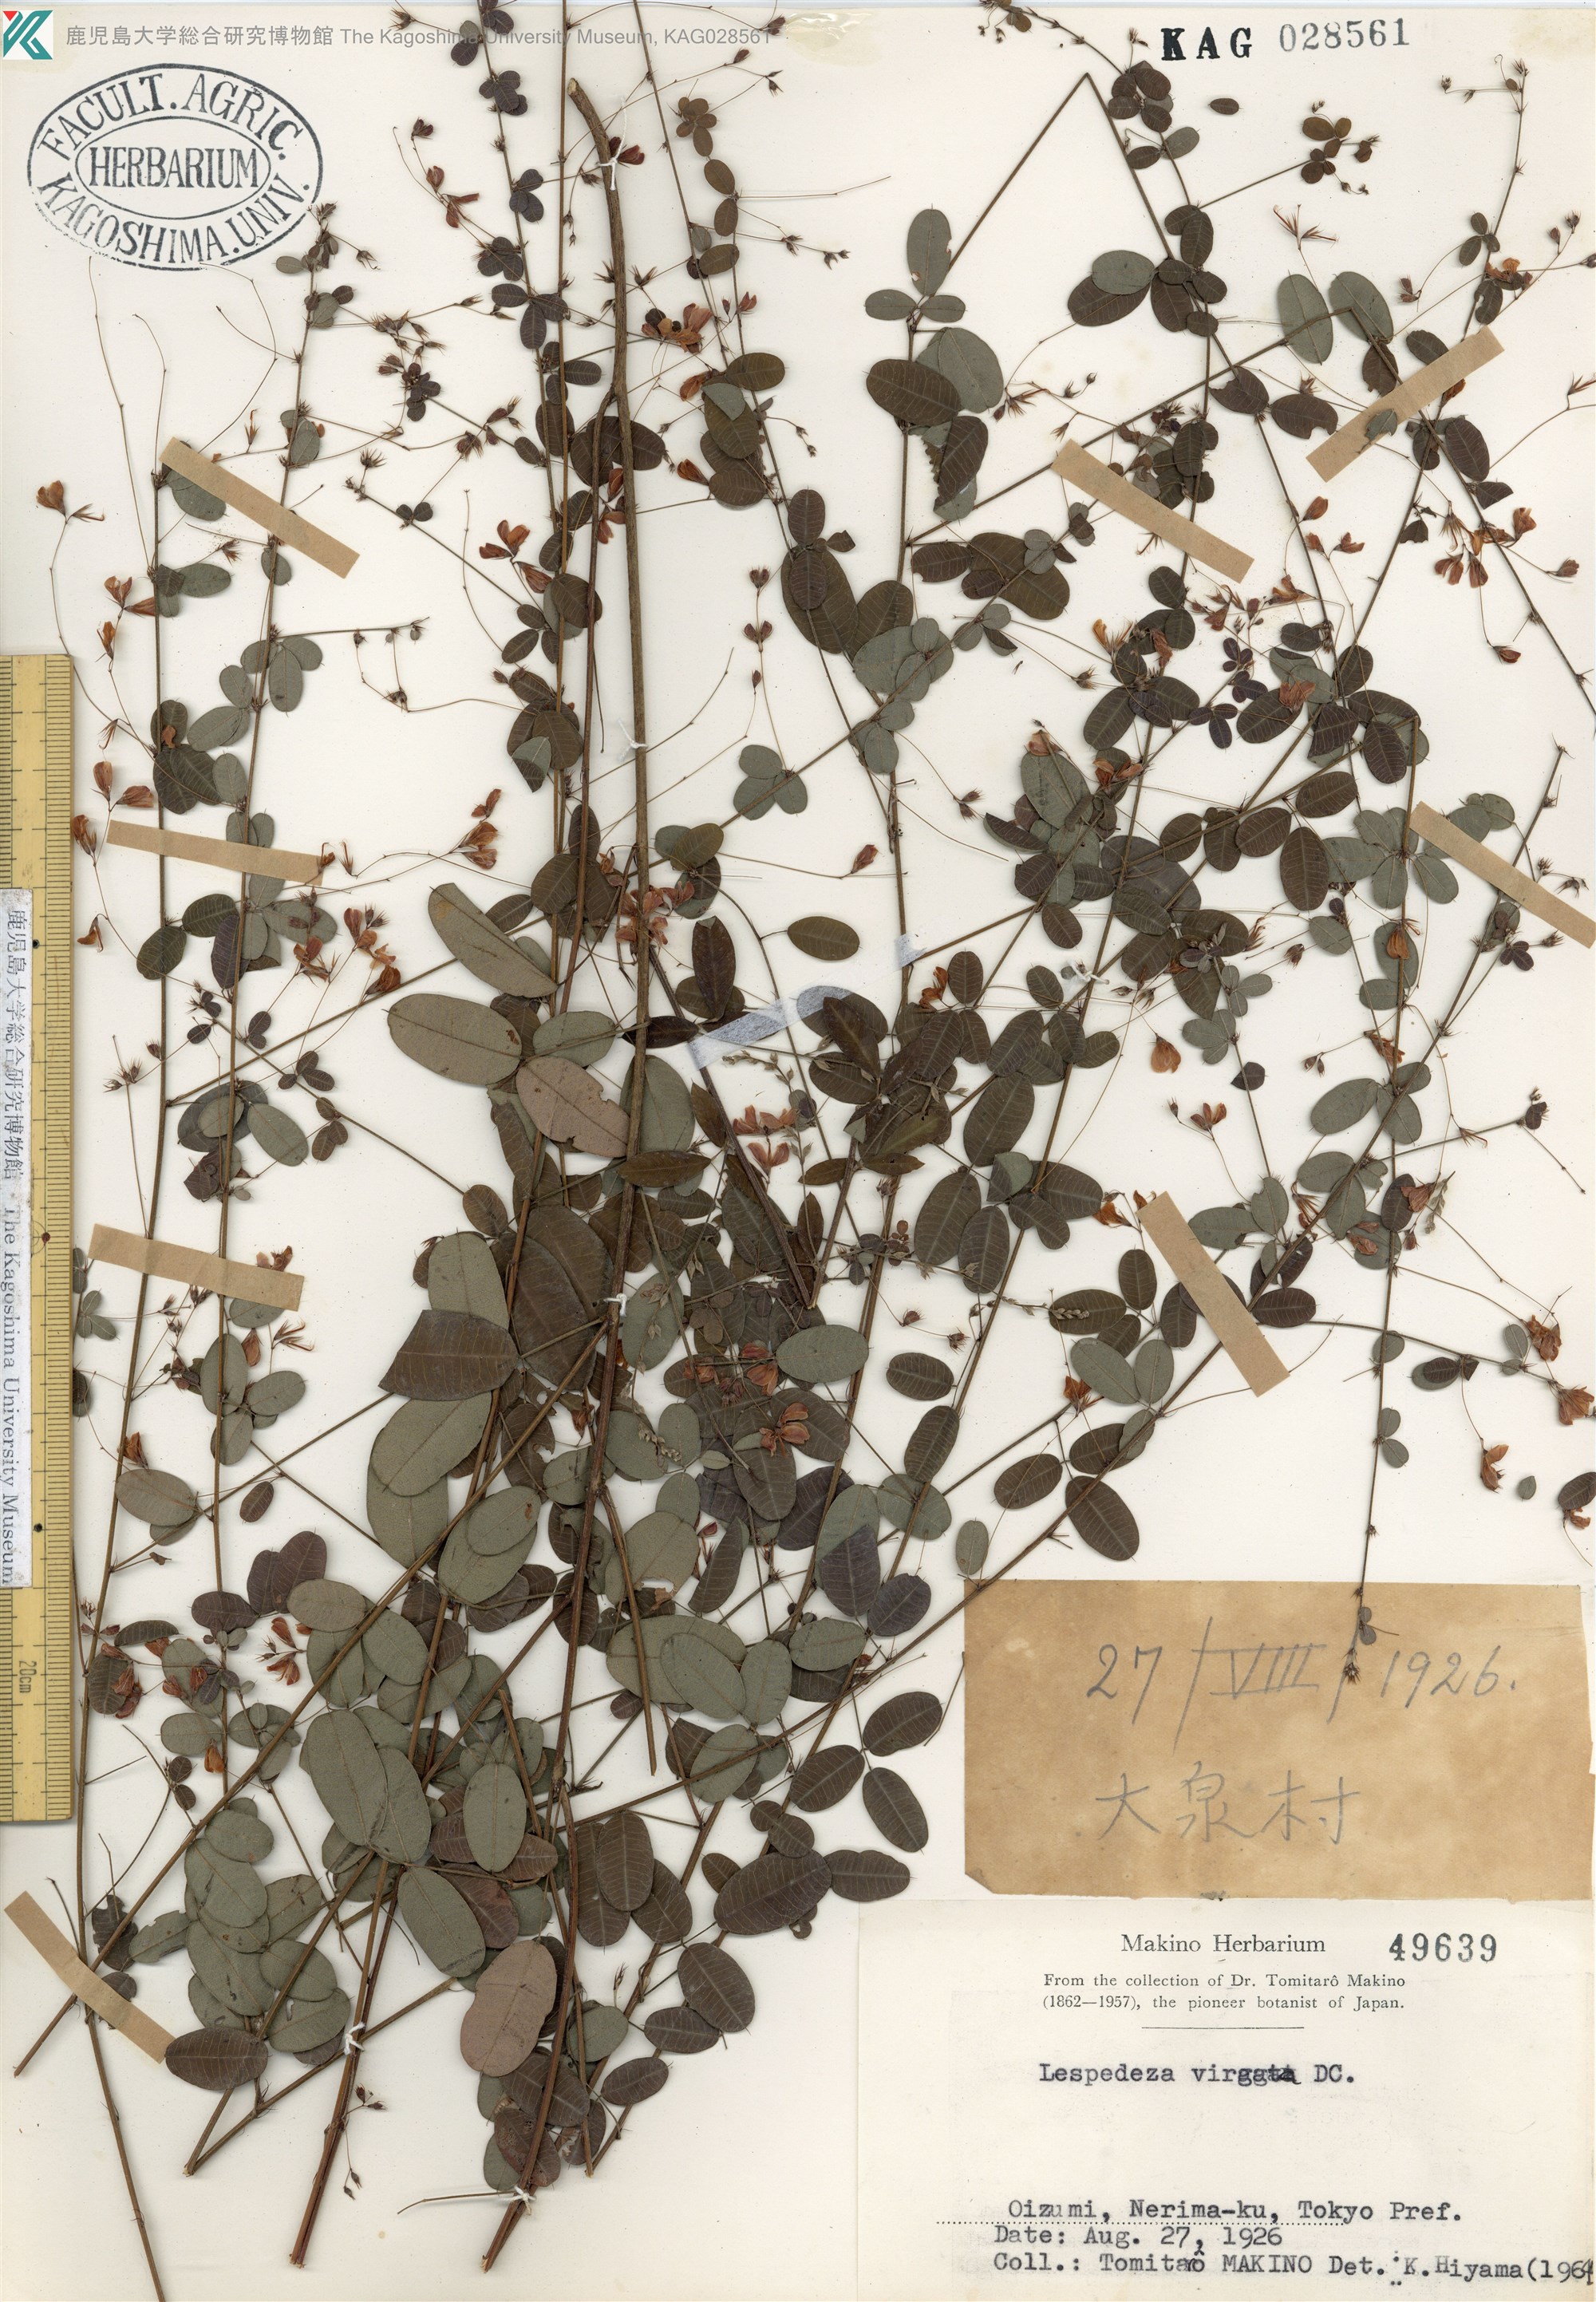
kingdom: Plantae
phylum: Tracheophyta
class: Magnoliopsida
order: Fabales
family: Fabaceae
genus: Lespedeza
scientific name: Lespedeza virgata
